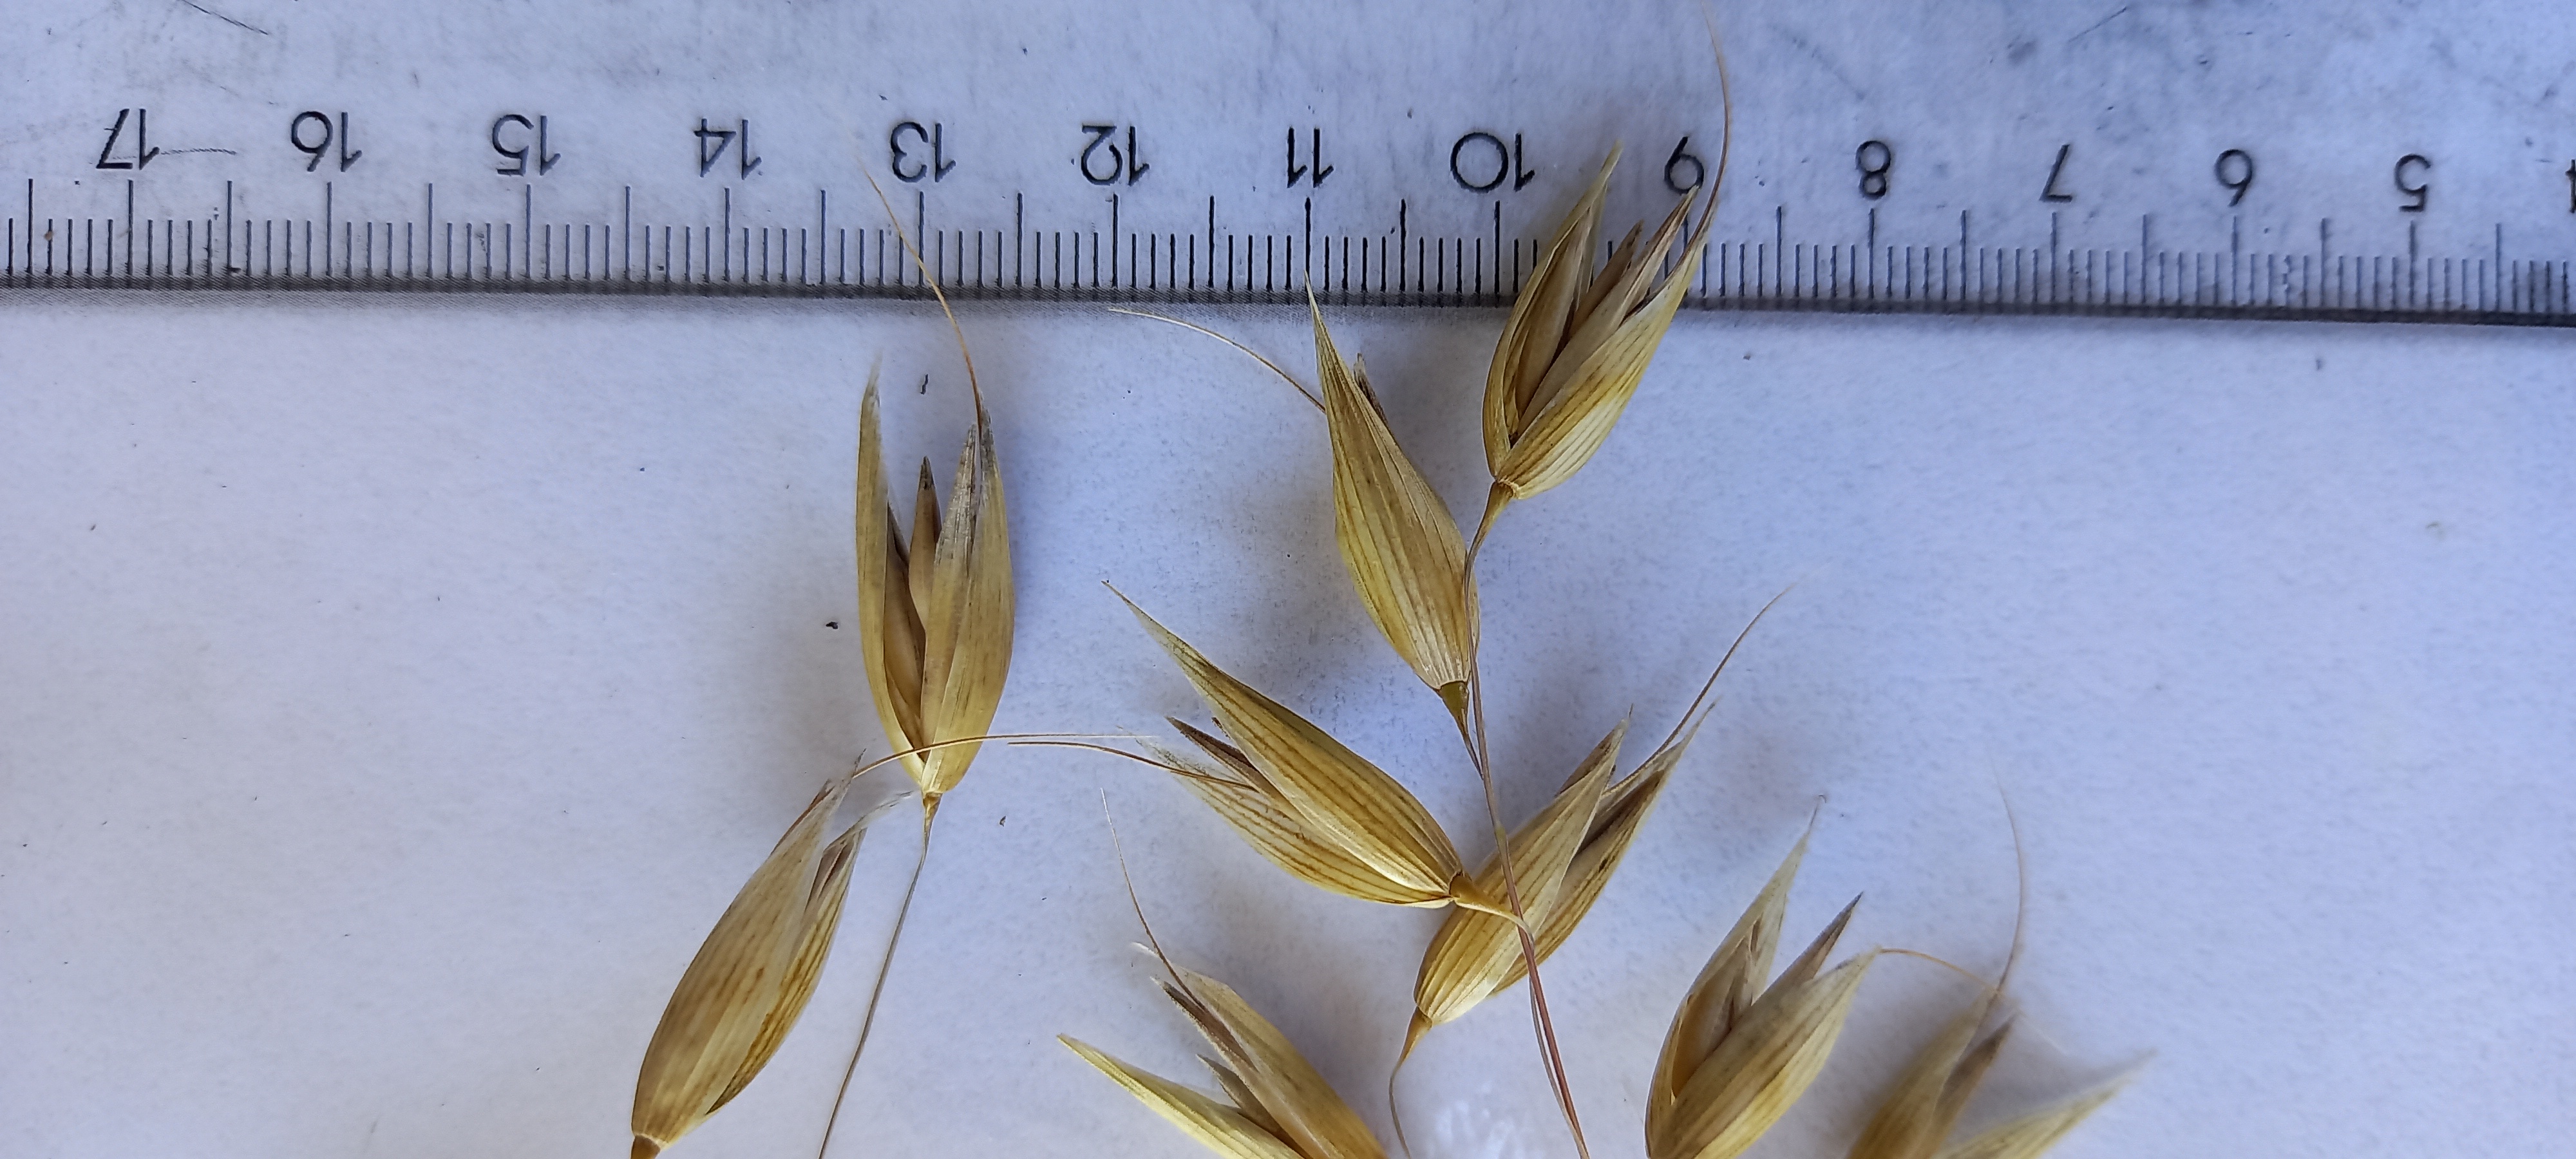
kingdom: Plantae
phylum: Tracheophyta
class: Liliopsida
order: Poales
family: Poaceae
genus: Avena
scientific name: Avena sativa
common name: Oat
